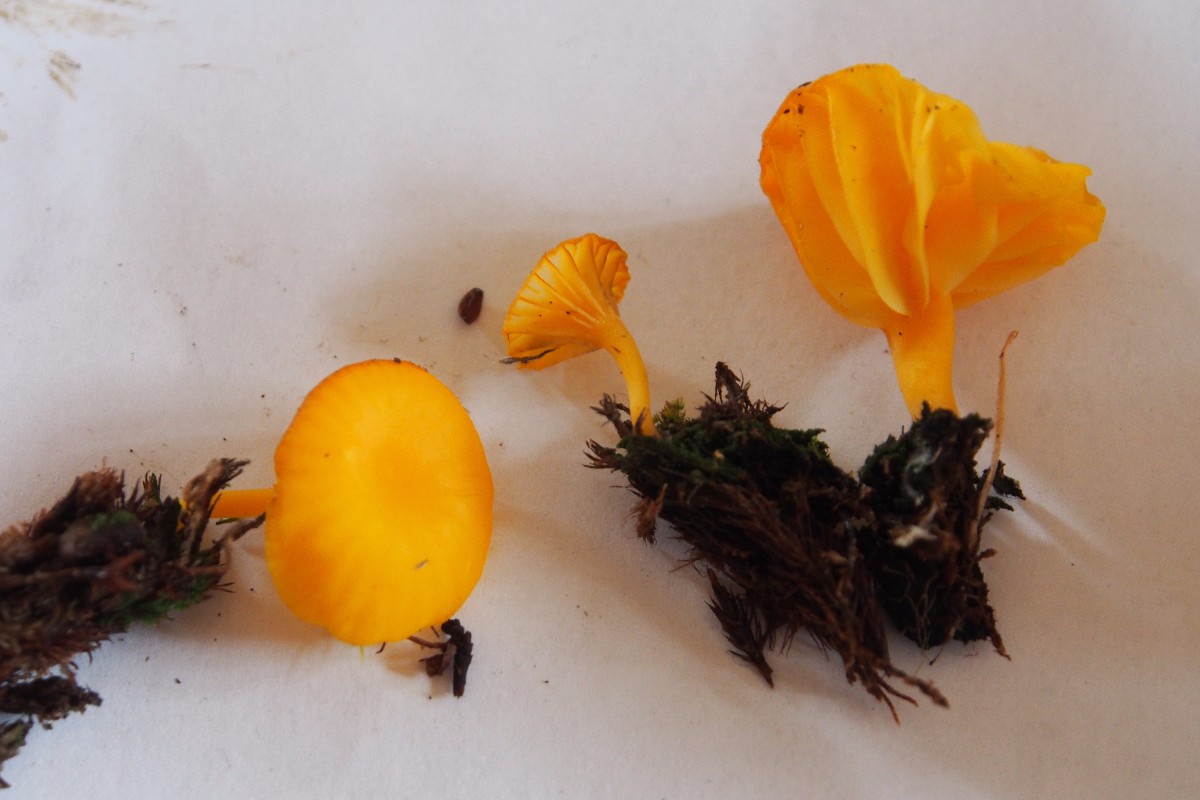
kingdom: Fungi
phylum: Basidiomycota
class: Agaricomycetes
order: Agaricales
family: Hygrophoraceae
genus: Lichenomphalia
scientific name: Lichenomphalia alpina
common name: fjeld-lavhat
